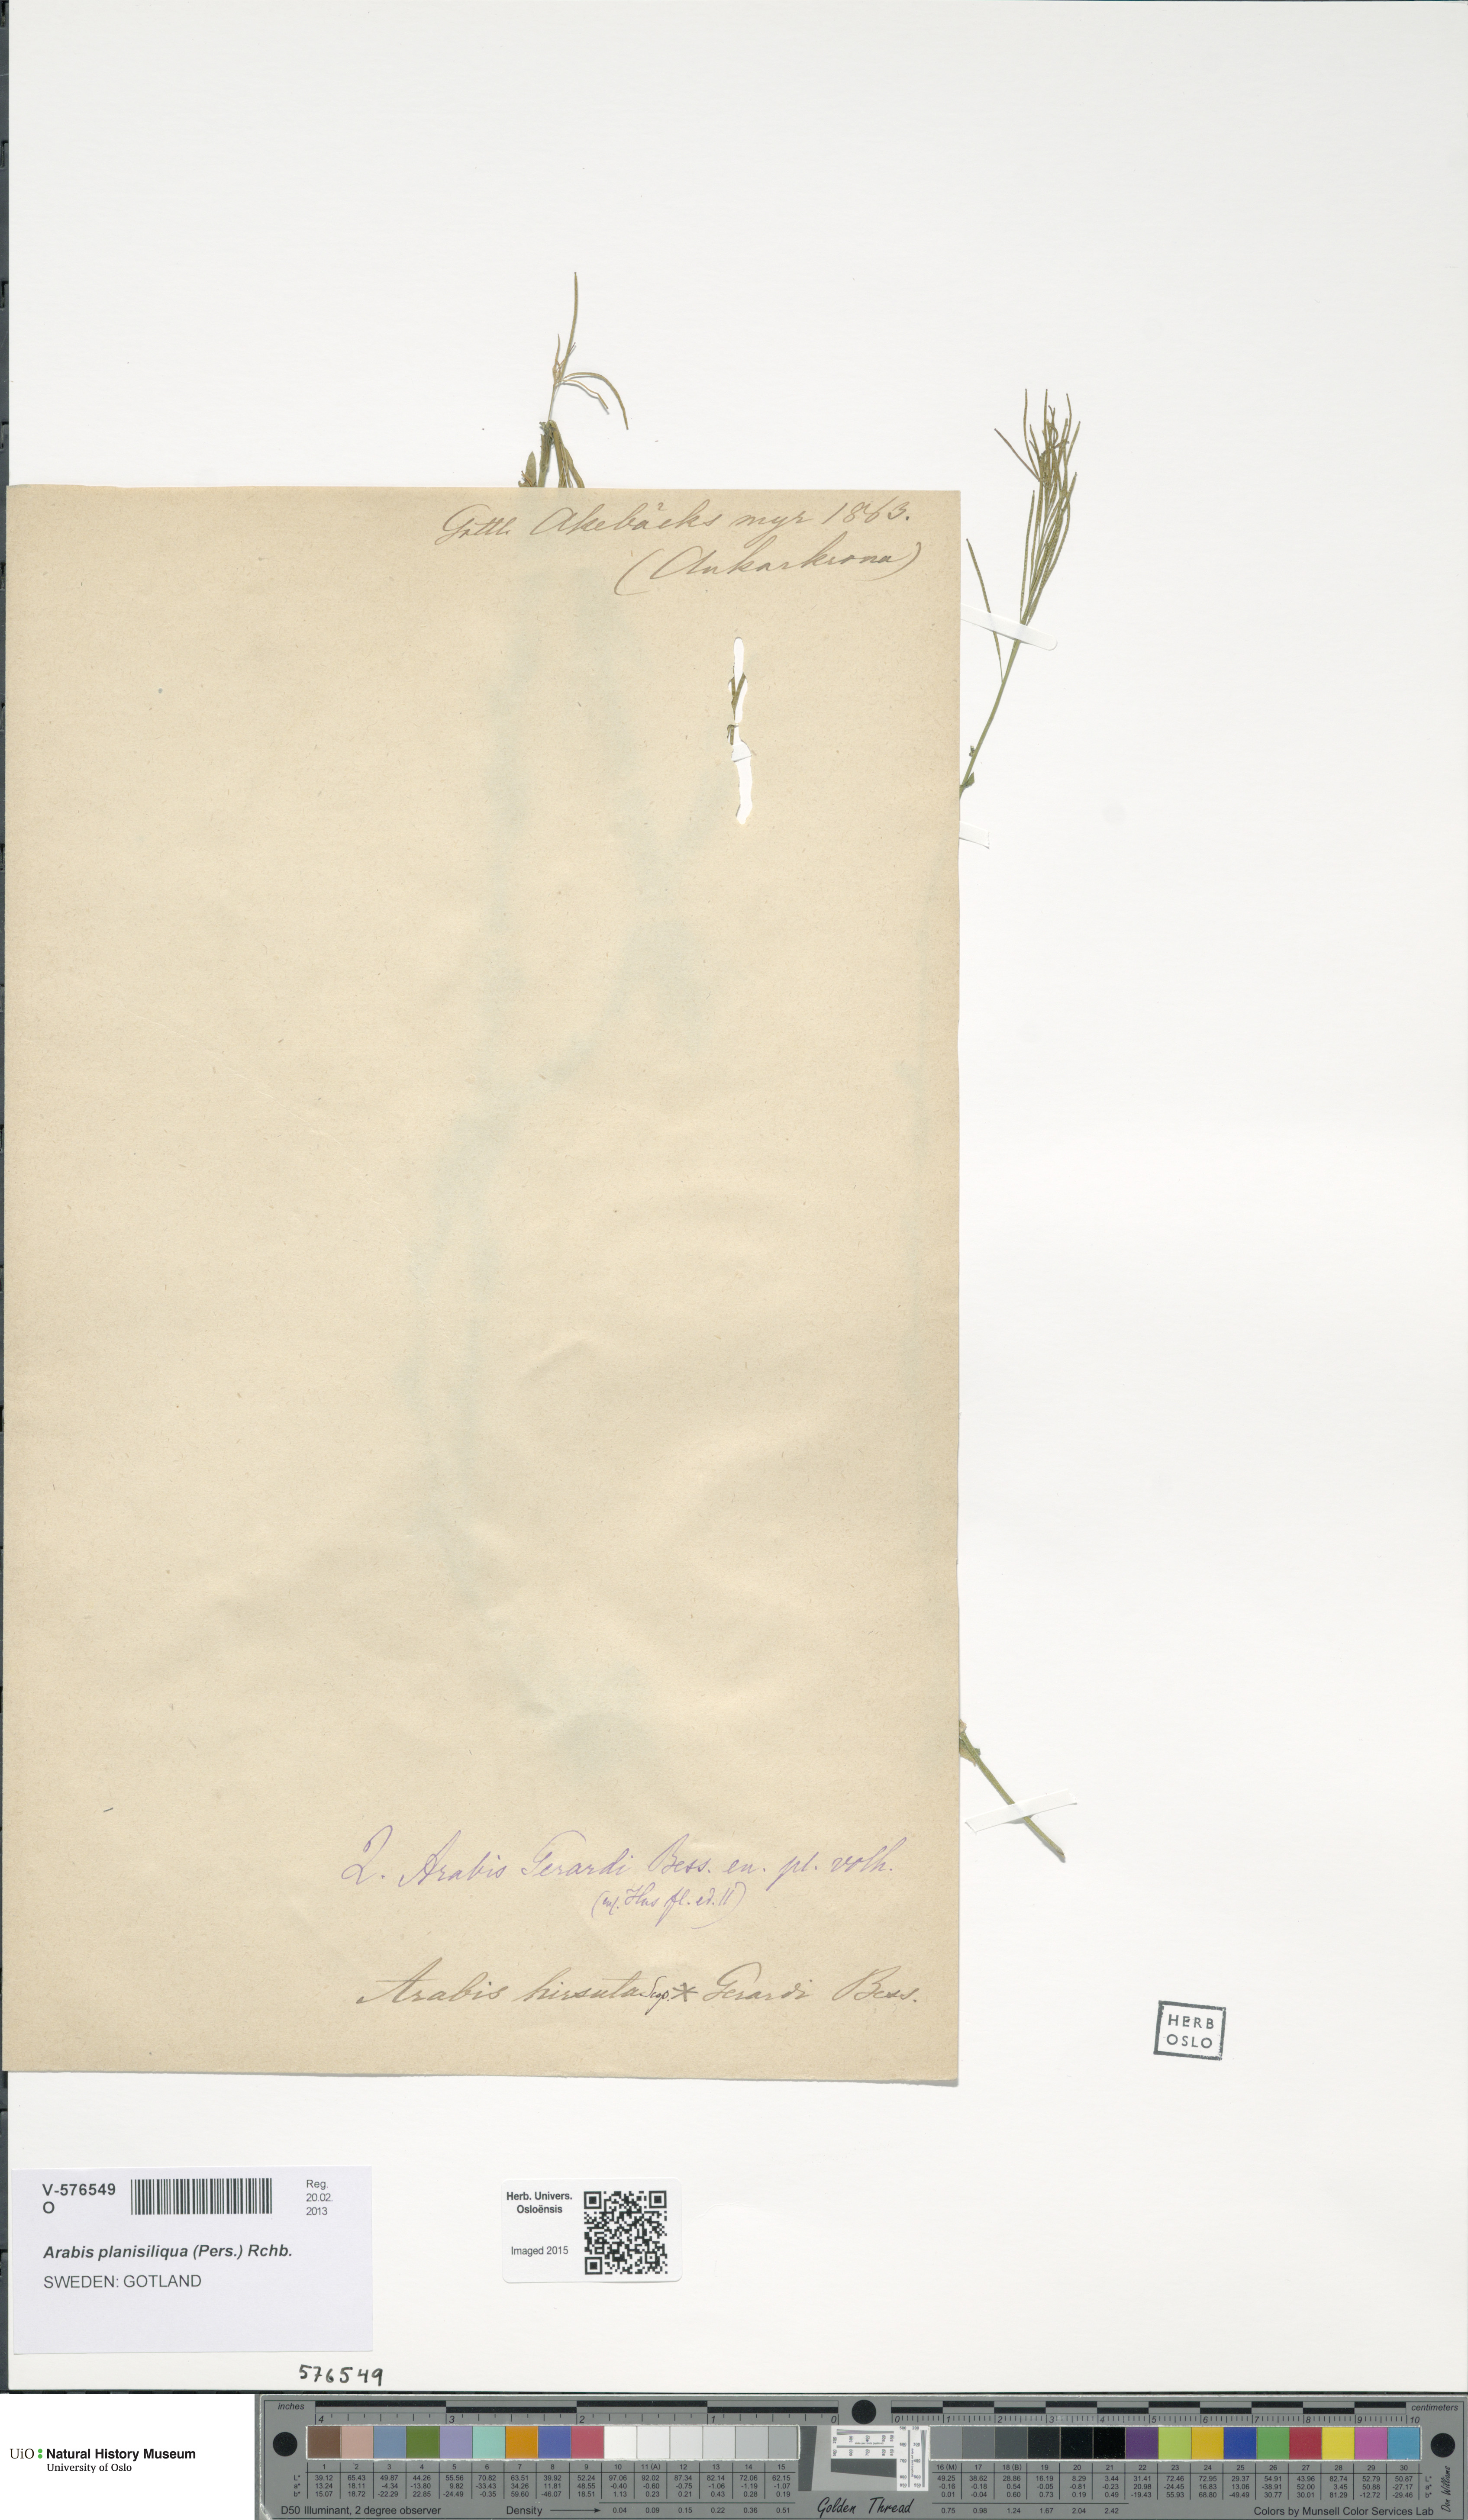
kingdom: Plantae
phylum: Tracheophyta
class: Magnoliopsida
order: Brassicales
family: Brassicaceae
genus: Arabis
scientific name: Arabis planisiliqua
